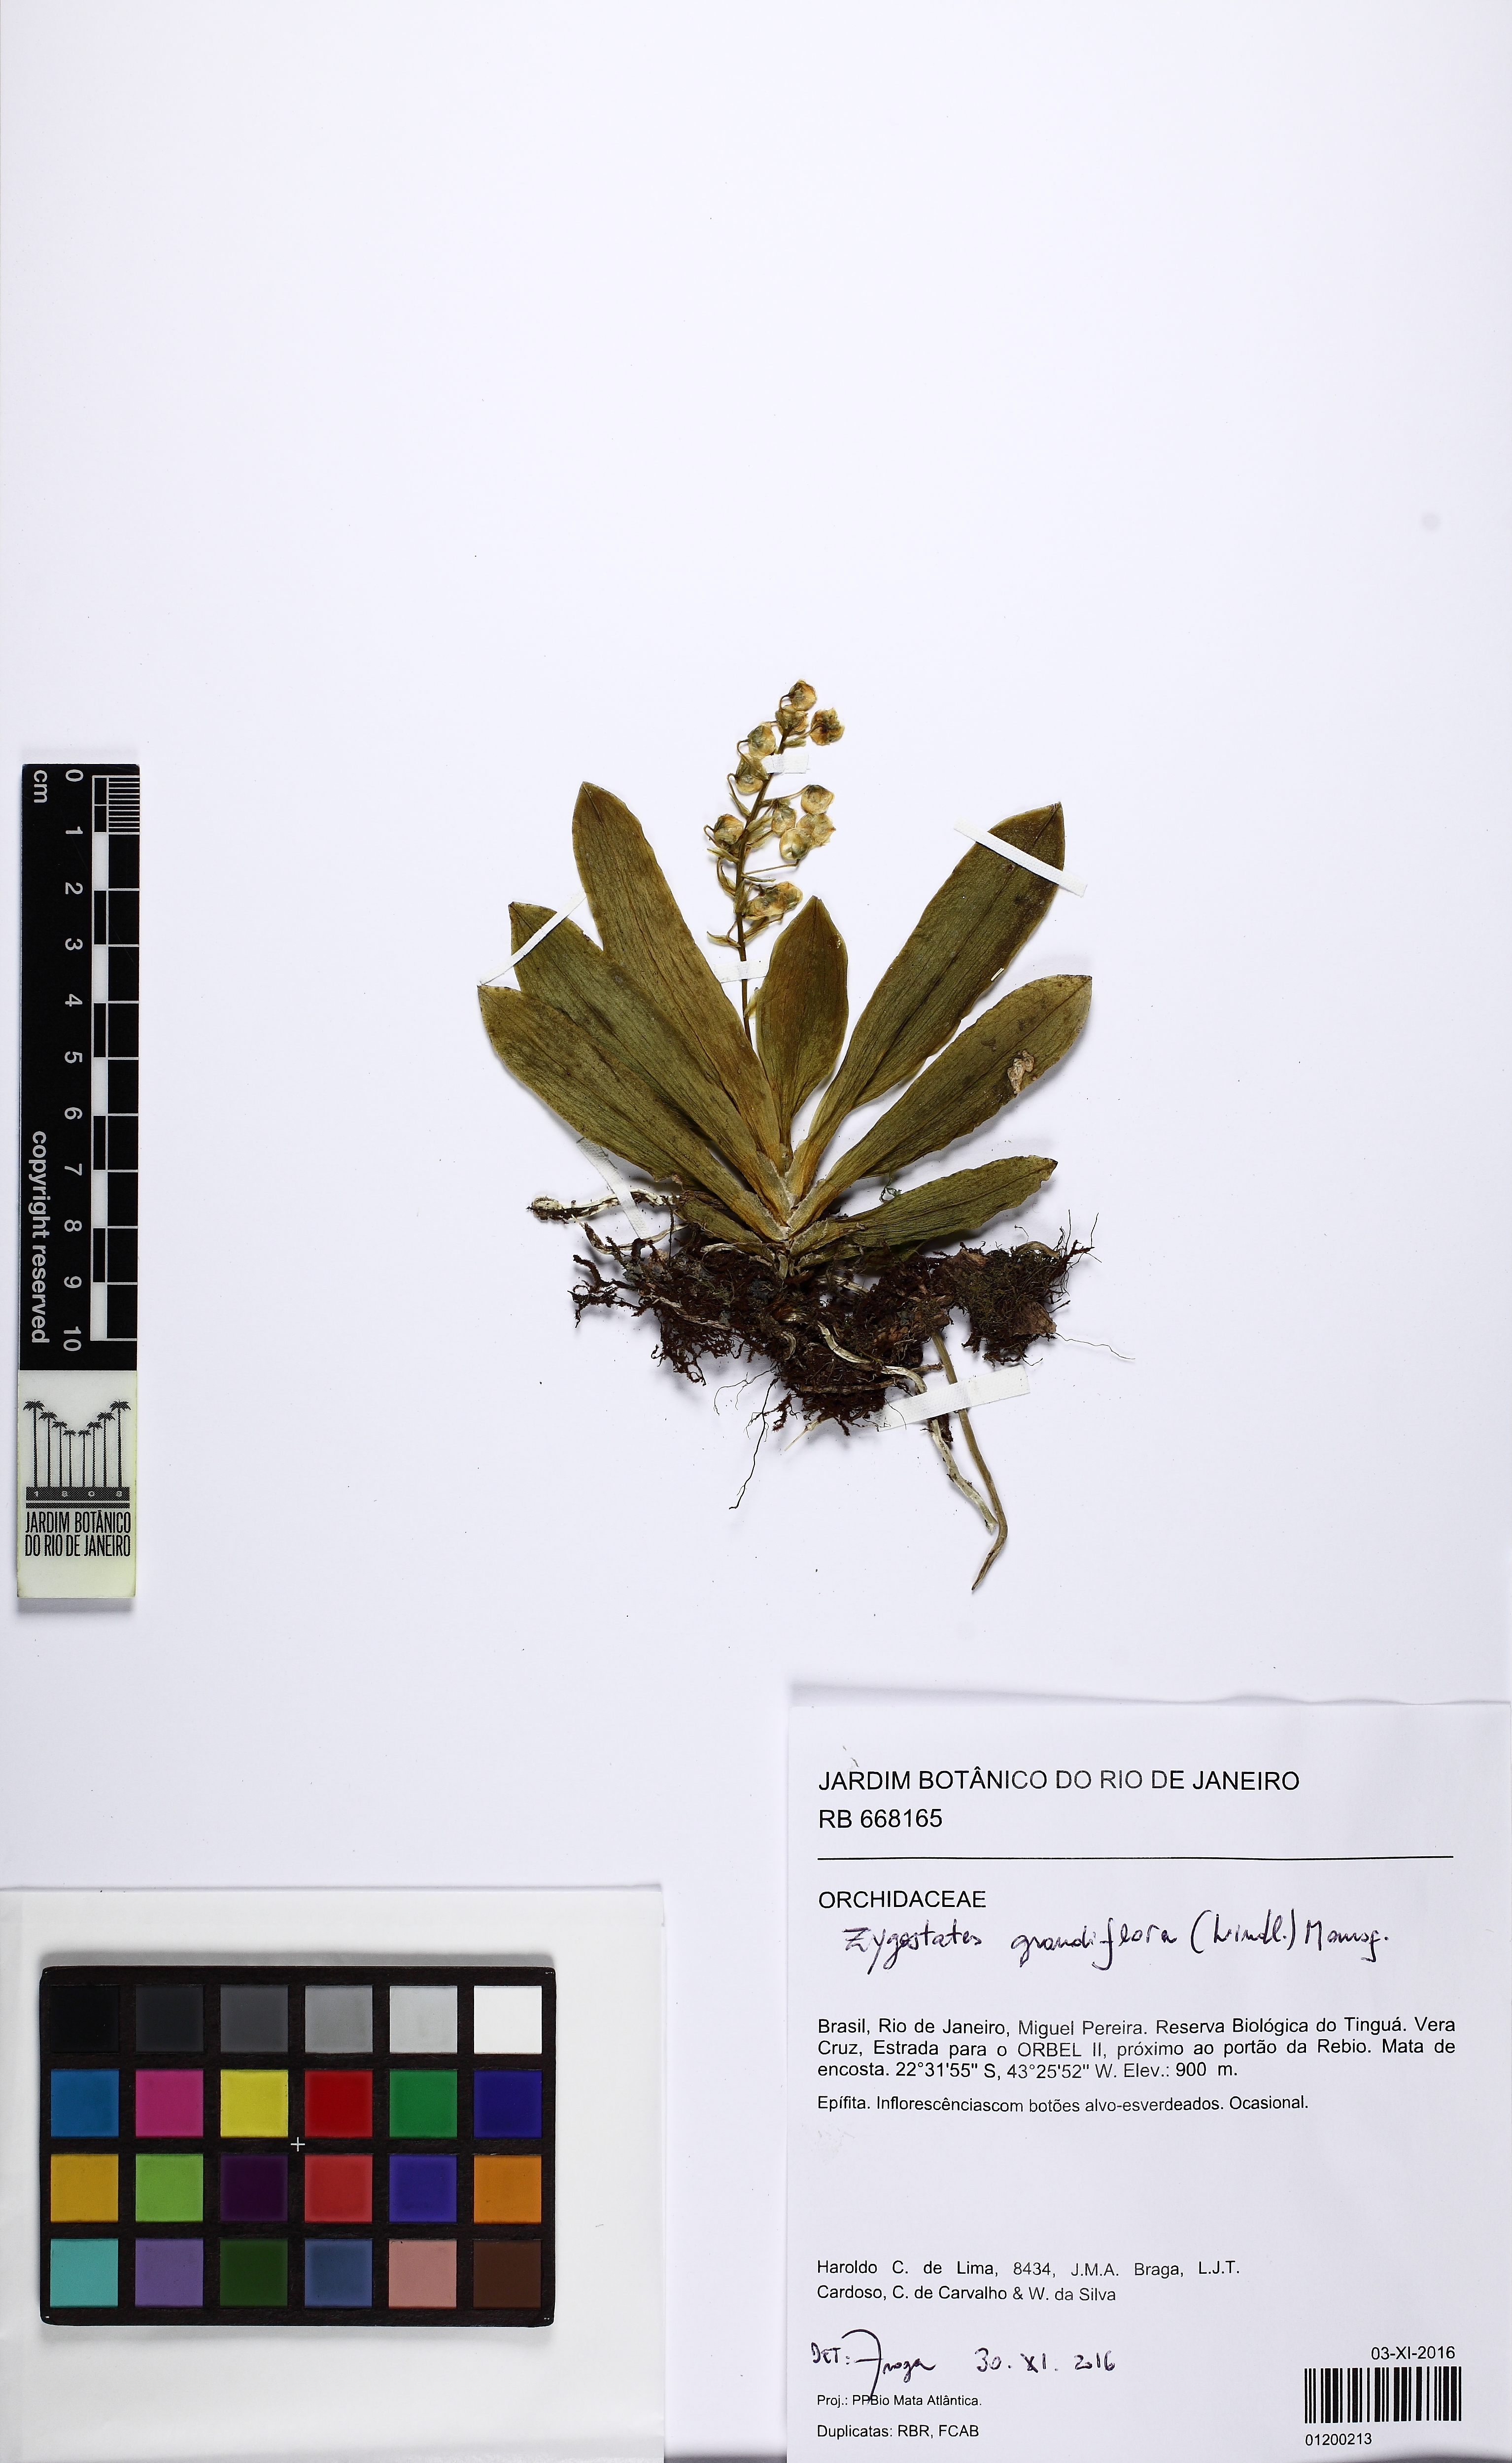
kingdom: Plantae
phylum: Tracheophyta
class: Liliopsida
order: Asparagales
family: Orchidaceae
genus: Zygostates
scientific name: Zygostates grandiflora
